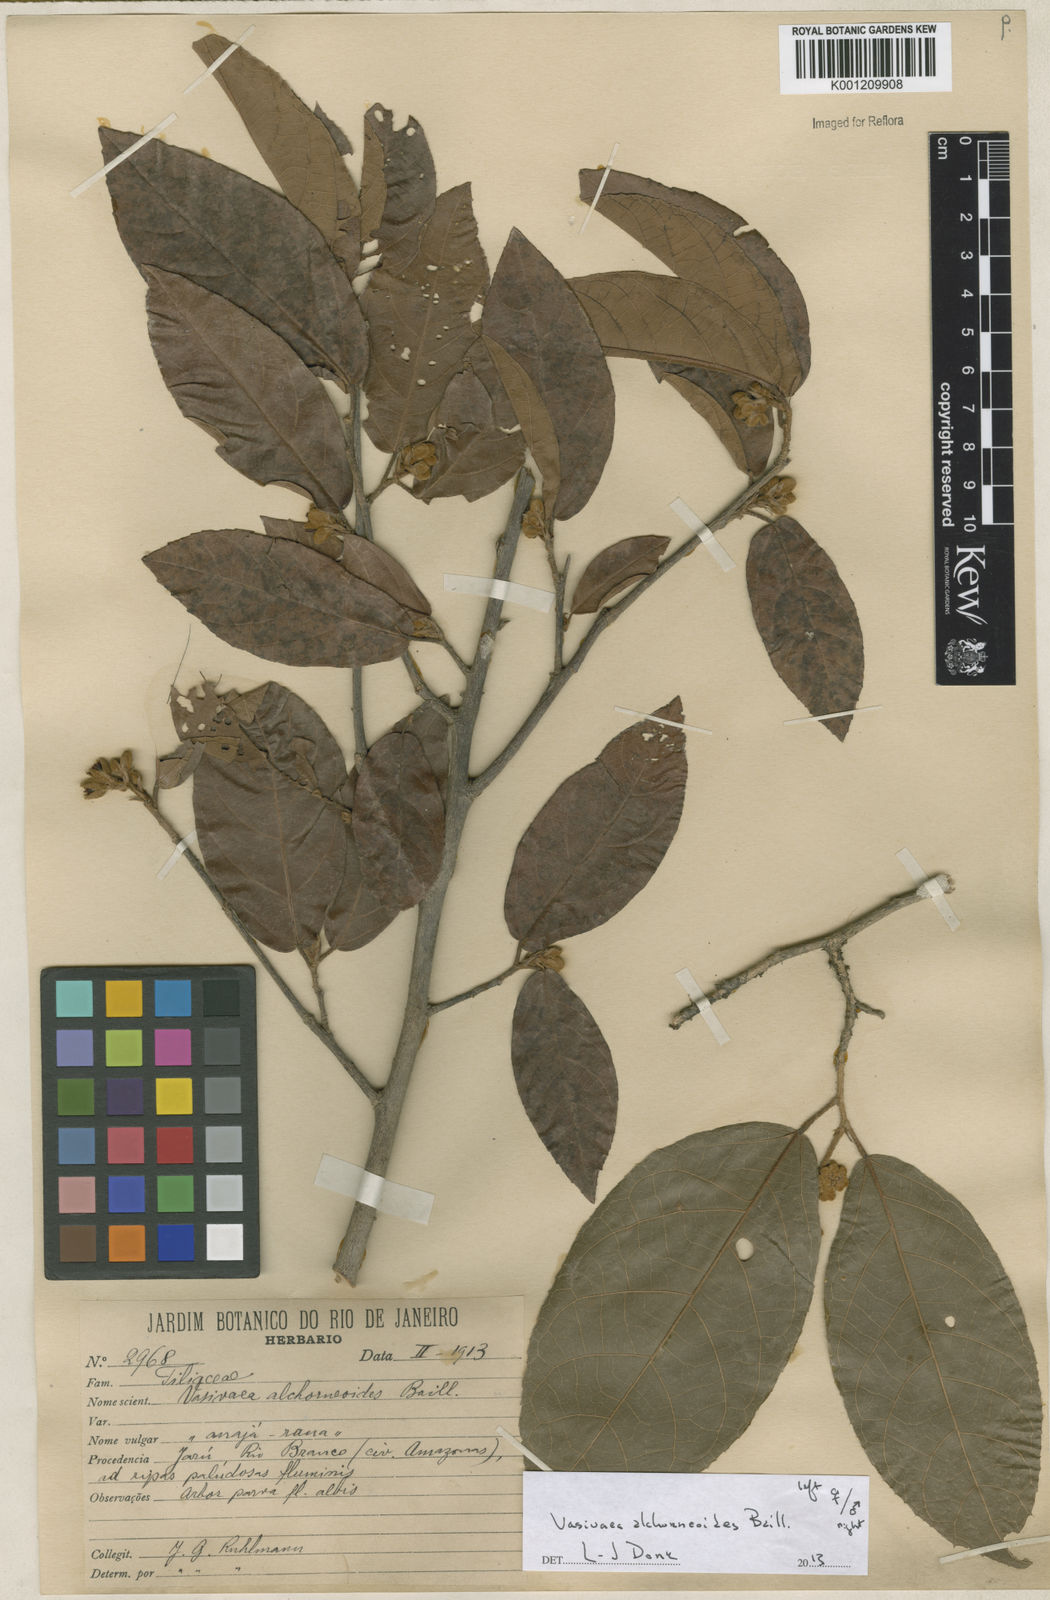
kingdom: Plantae
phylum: Tracheophyta
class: Magnoliopsida
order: Malvales
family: Malvaceae
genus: Vasivaea
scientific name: Vasivaea alchorneoides
